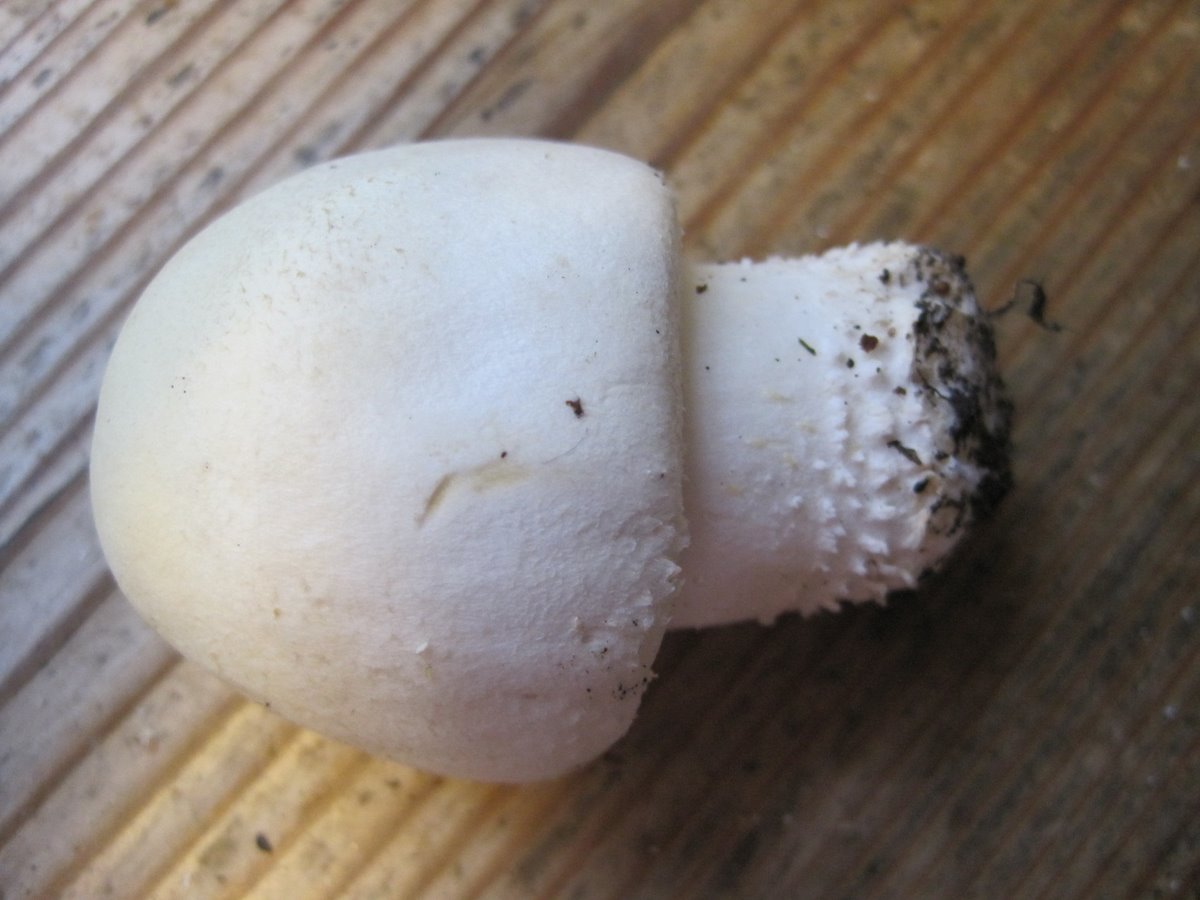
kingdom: Fungi
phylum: Basidiomycota
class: Agaricomycetes
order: Agaricales
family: Agaricaceae
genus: Agaricus
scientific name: Agaricus arvensis
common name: ager-champignon
